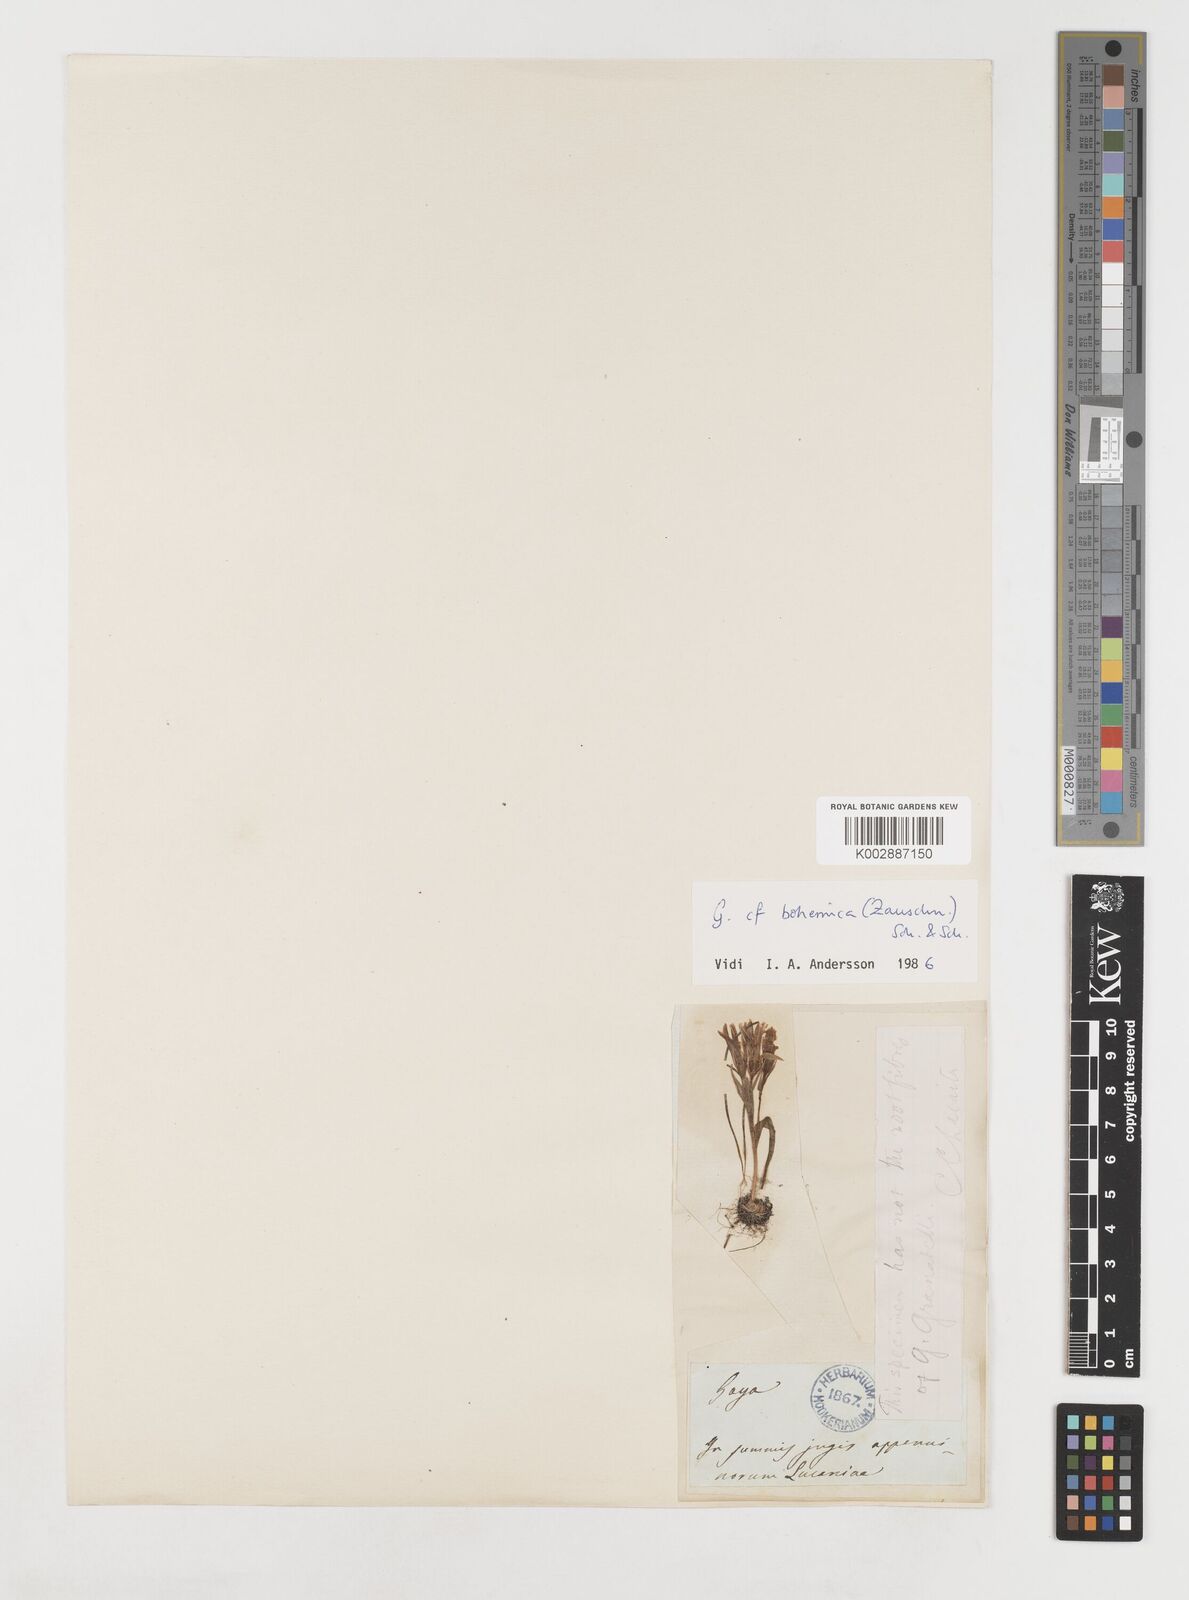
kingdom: Plantae
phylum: Tracheophyta
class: Liliopsida
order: Liliales
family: Liliaceae
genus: Gagea
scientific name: Gagea peduncularis
